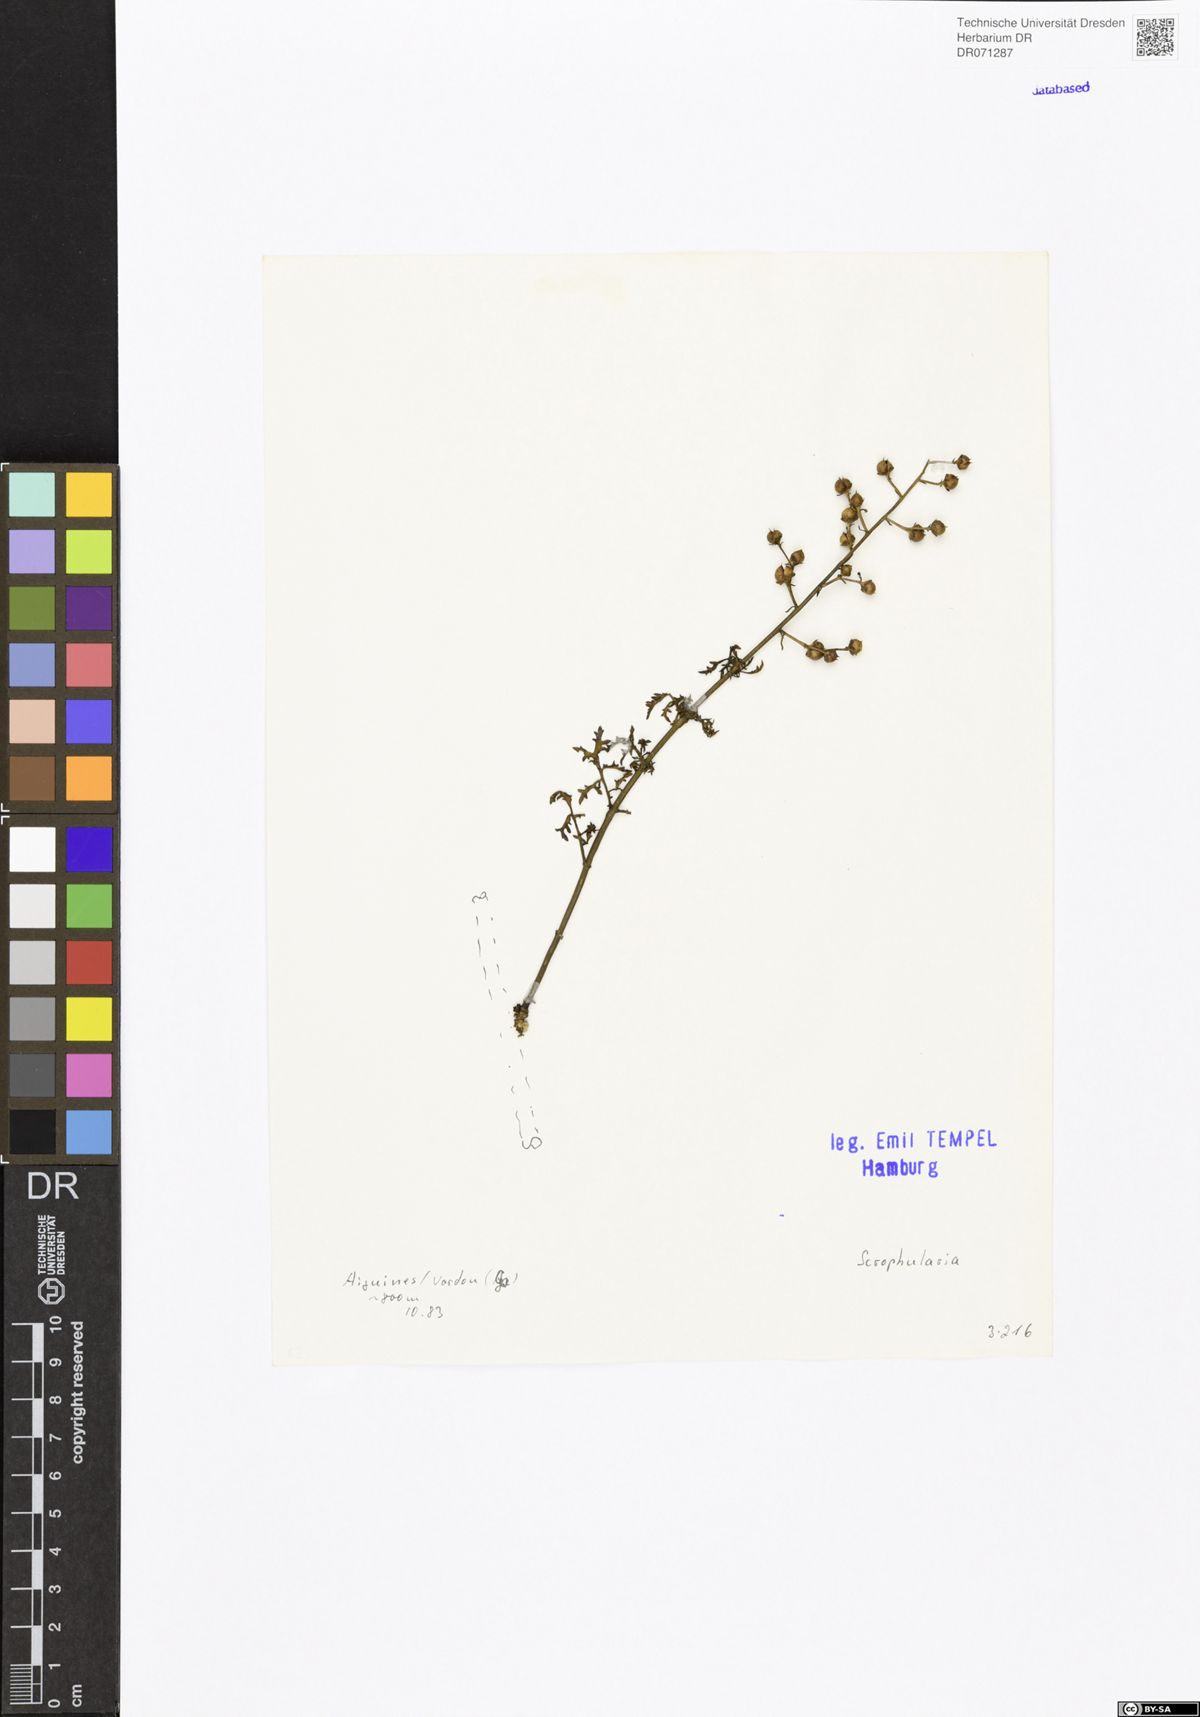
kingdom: Plantae
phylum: Tracheophyta
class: Magnoliopsida
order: Lamiales
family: Scrophulariaceae
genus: Scrophularia
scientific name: Scrophularia
